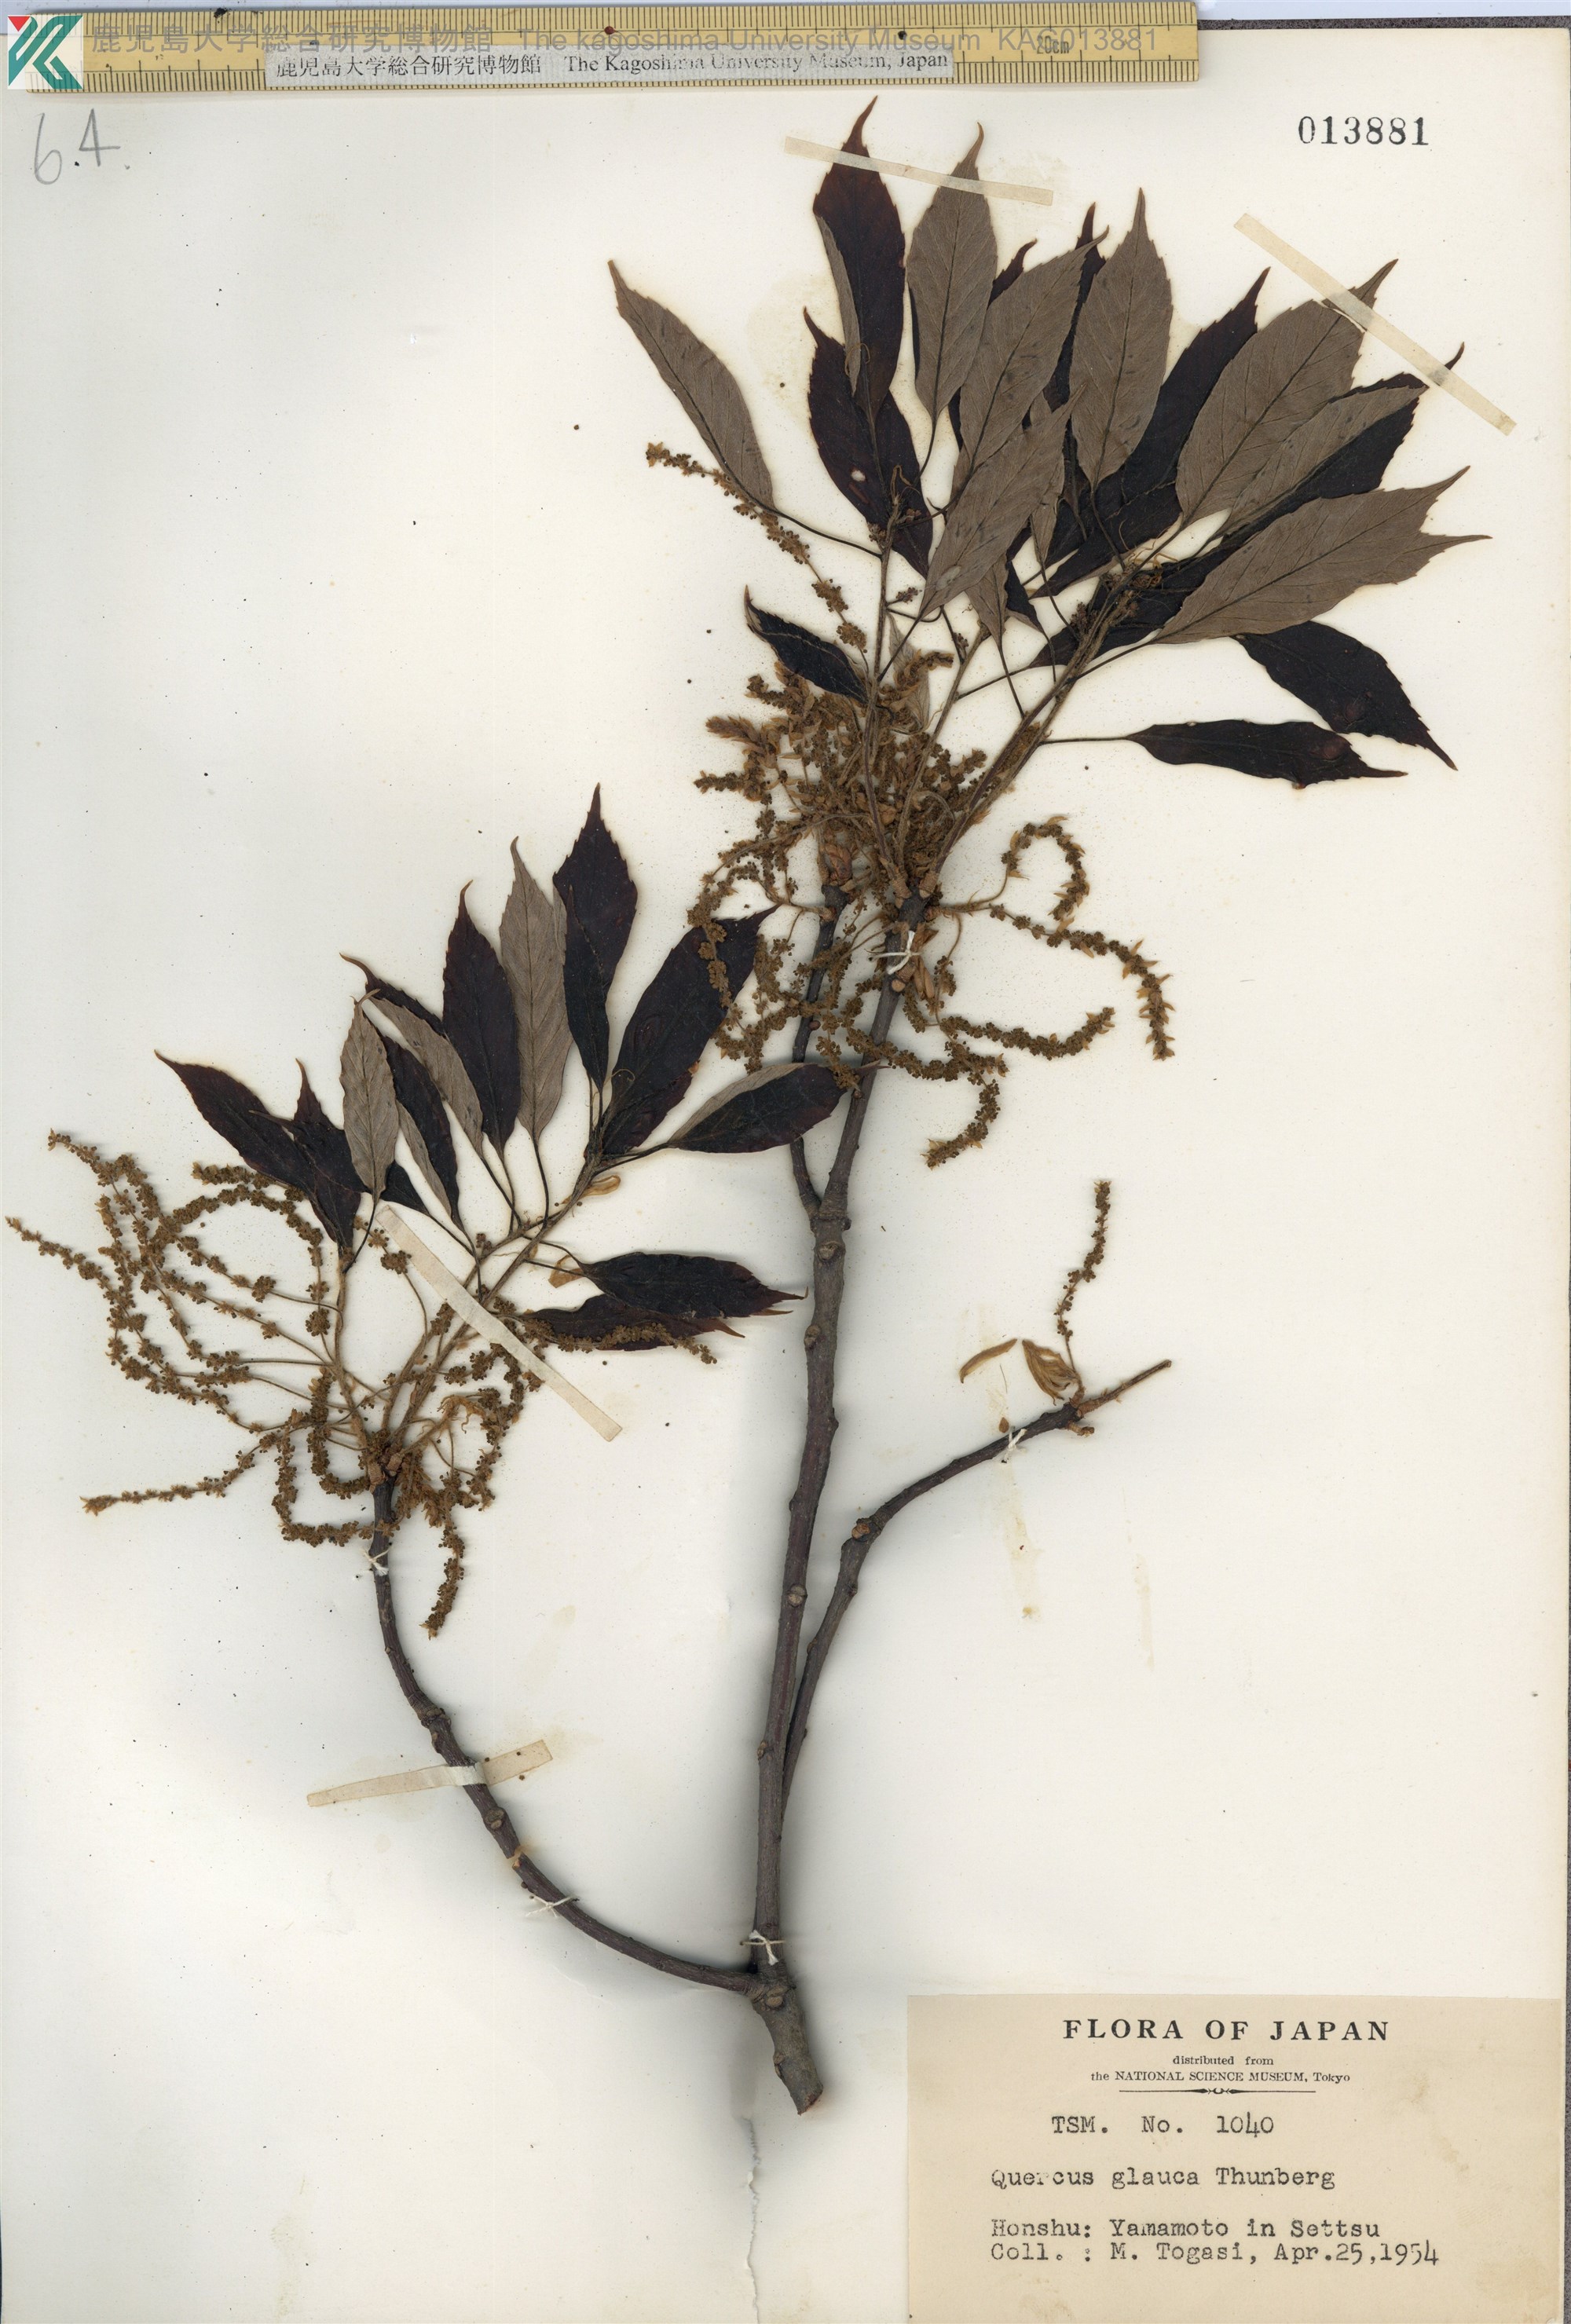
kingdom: Plantae
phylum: Tracheophyta
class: Magnoliopsida
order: Fagales
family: Fagaceae
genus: Quercus
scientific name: Quercus glauca
